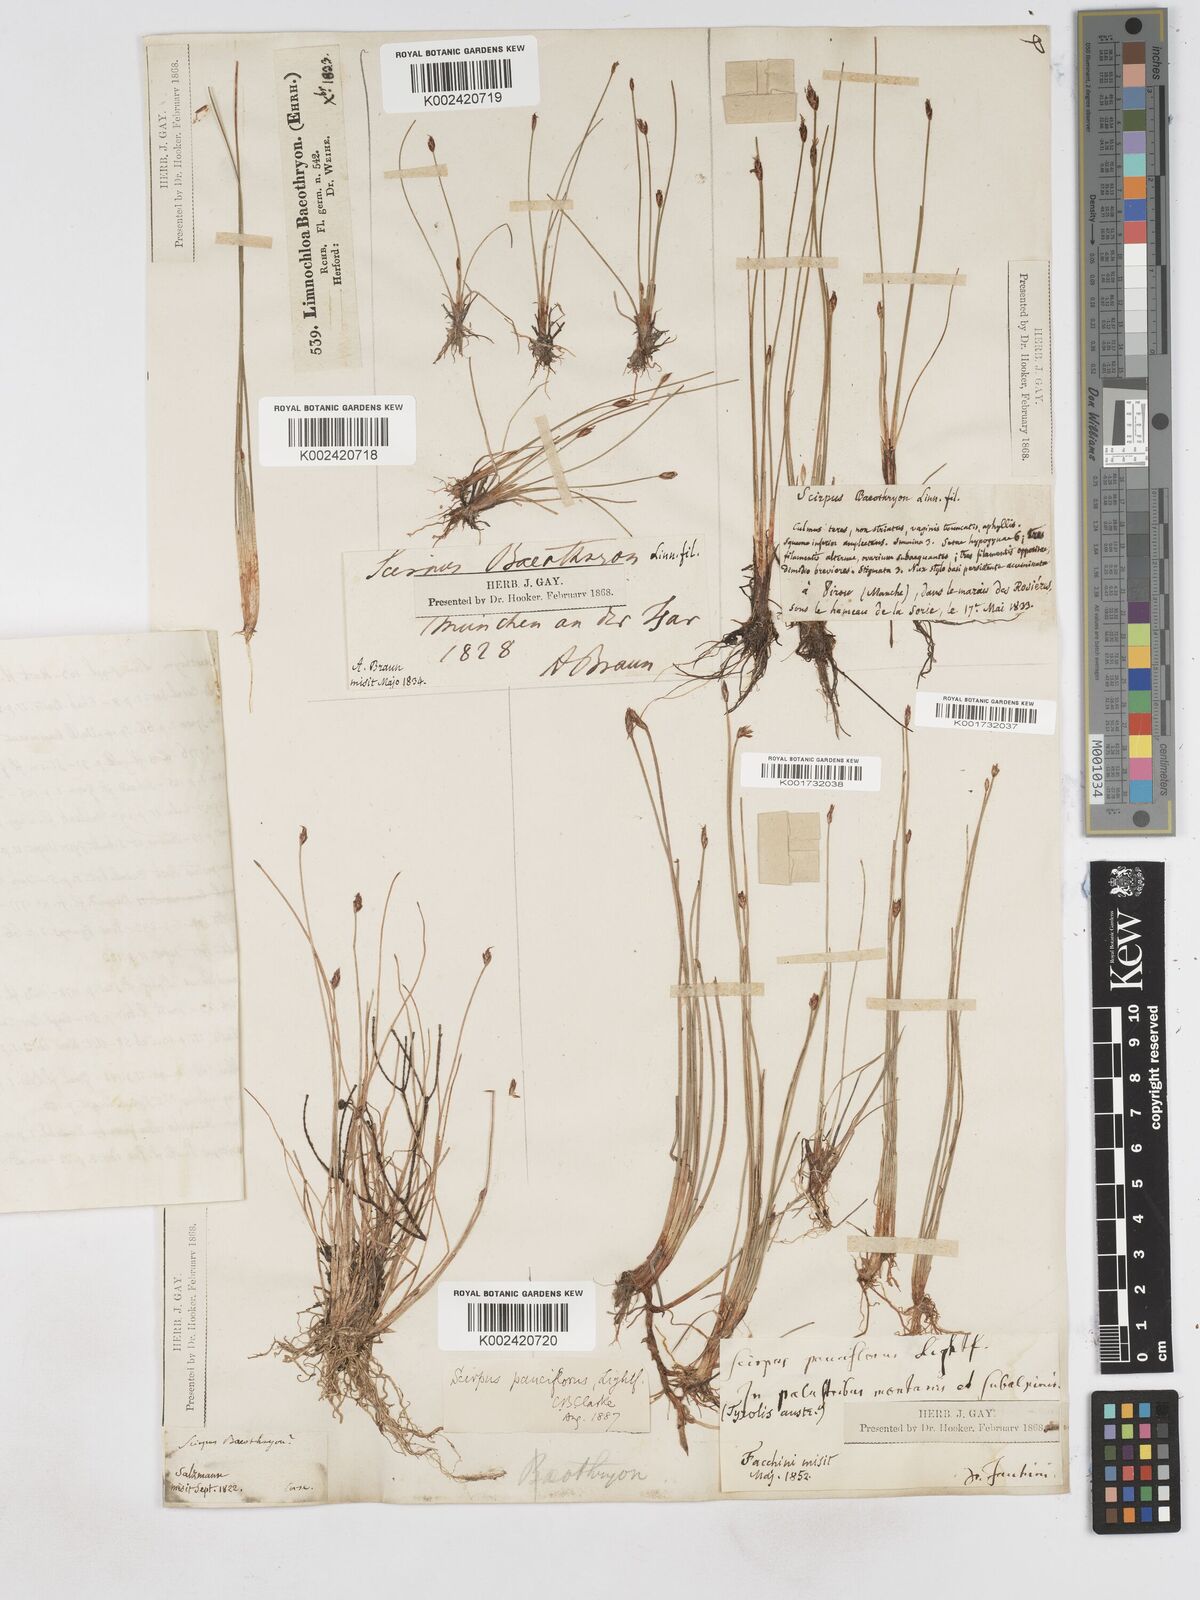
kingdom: Plantae
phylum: Tracheophyta
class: Liliopsida
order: Poales
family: Cyperaceae
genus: Eleocharis
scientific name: Eleocharis quinqueflora
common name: Few-flowered spike-rush
